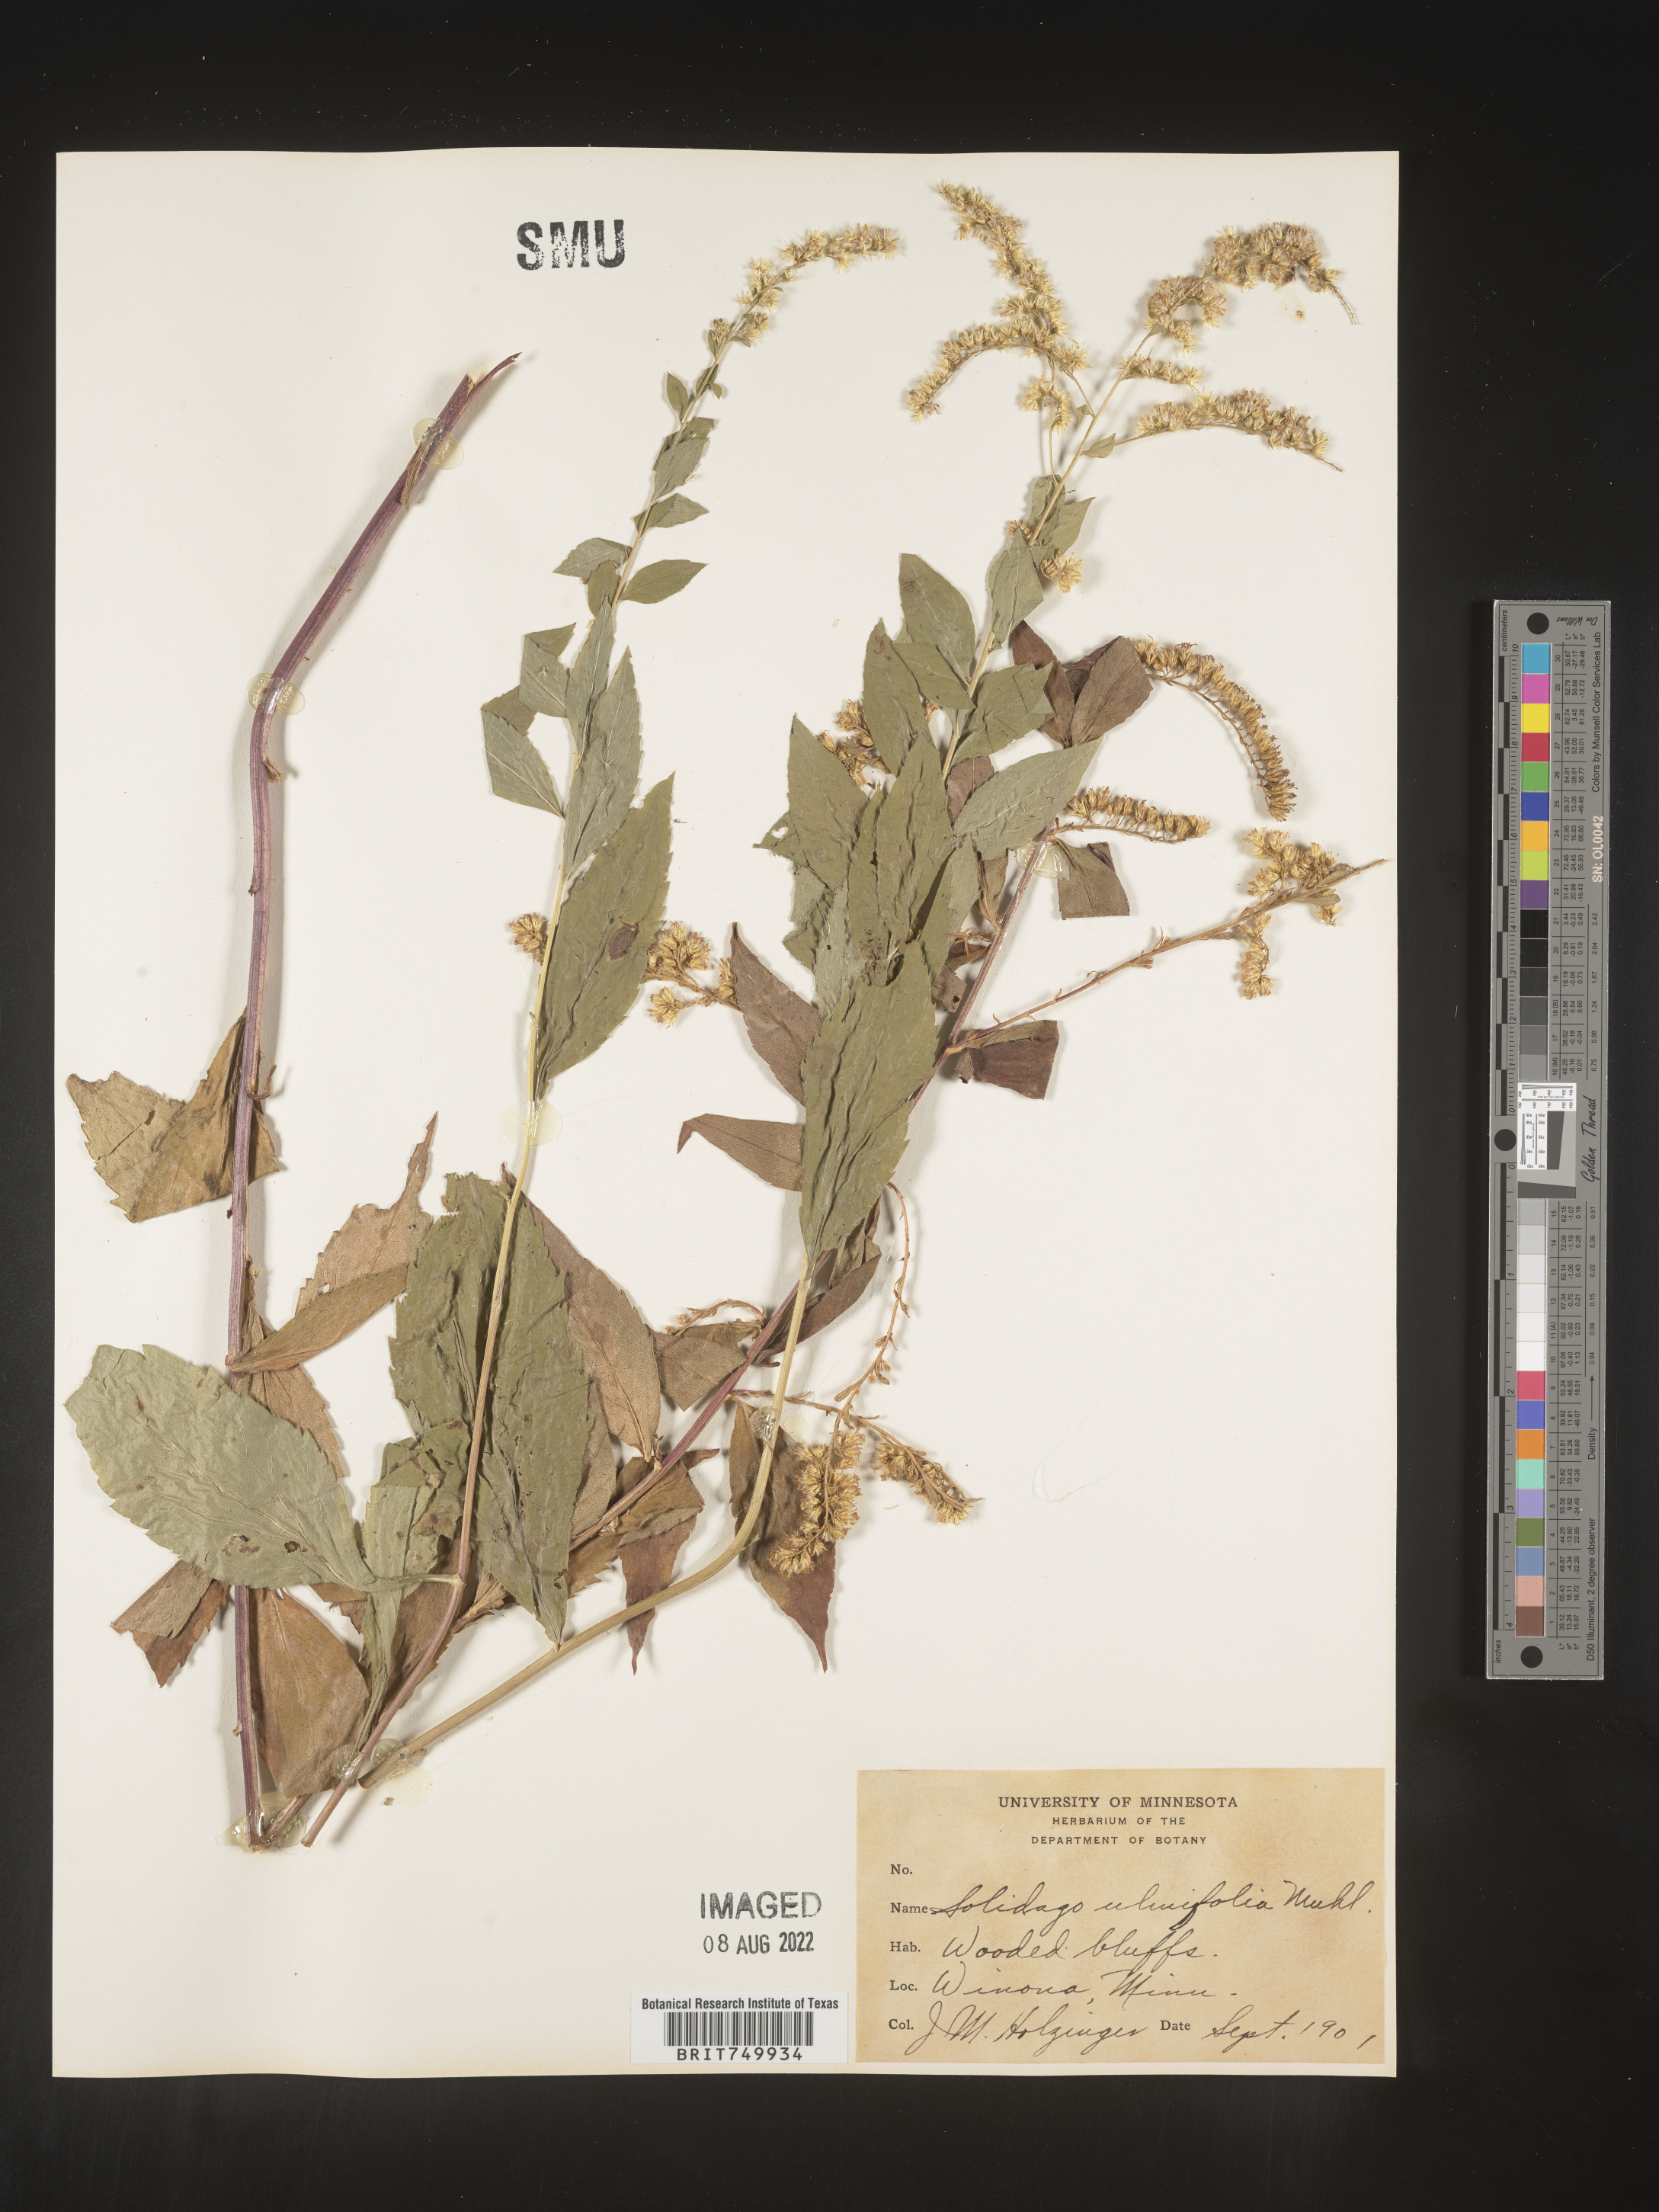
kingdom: Plantae
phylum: Tracheophyta
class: Magnoliopsida
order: Asterales
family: Asteraceae
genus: Solidago
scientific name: Solidago ulmifolia
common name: Elm-leaf goldenrod
